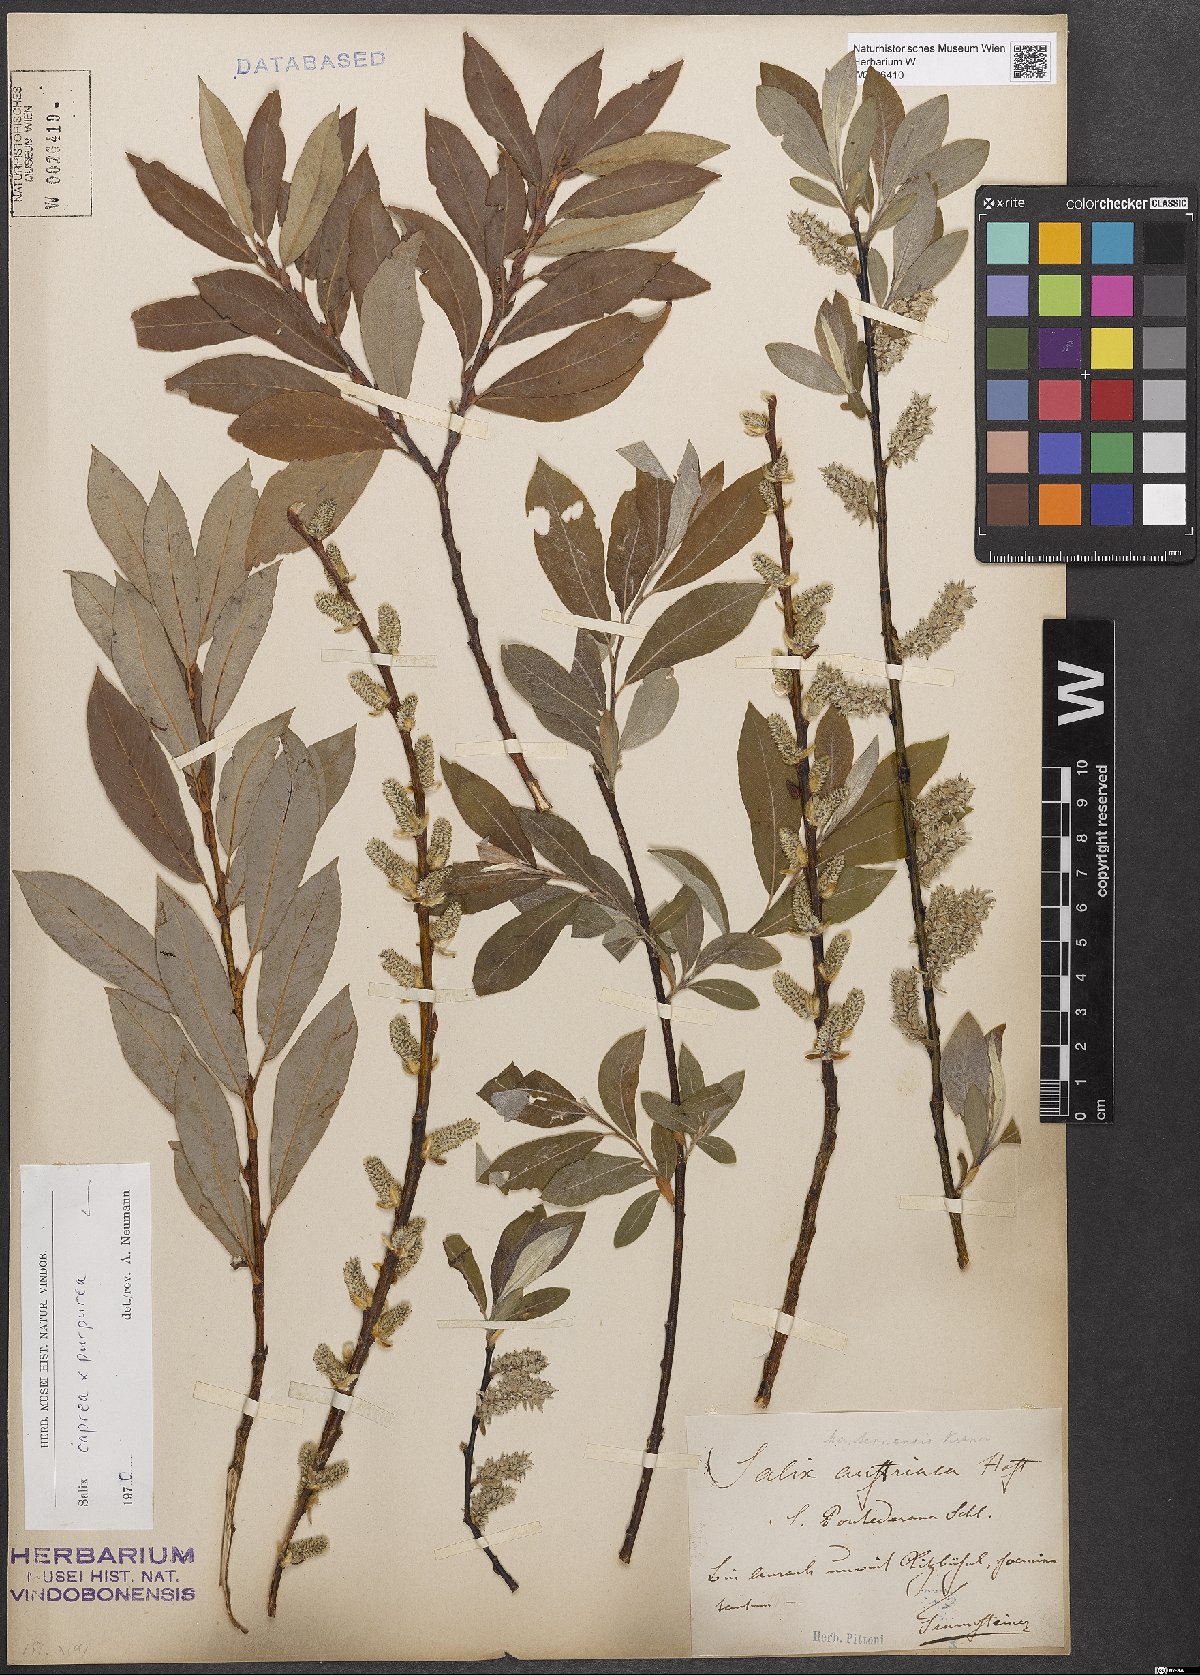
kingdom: Plantae
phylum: Tracheophyta
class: Magnoliopsida
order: Malpighiales
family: Salicaceae
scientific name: Salicaceae
